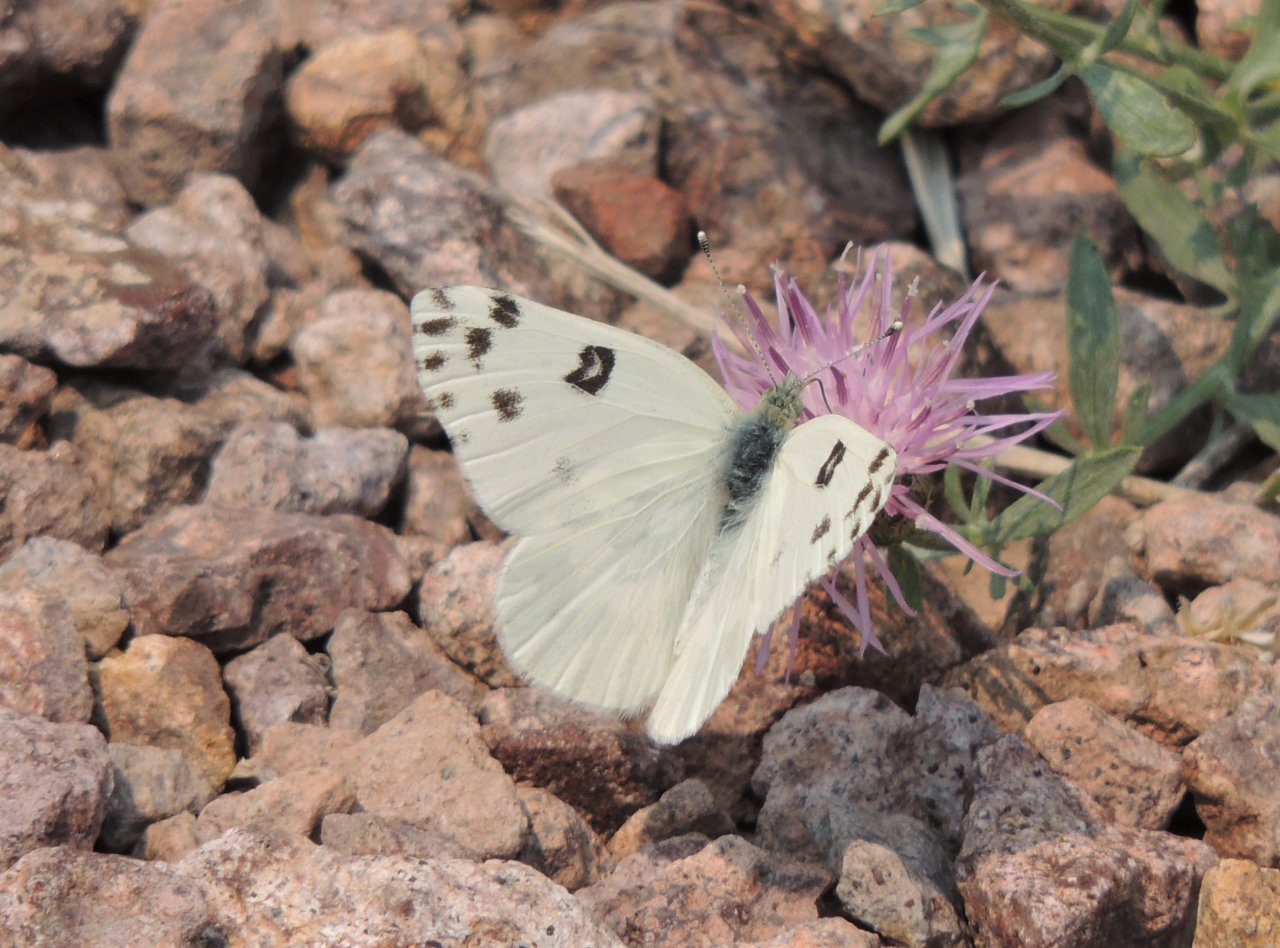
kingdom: Animalia
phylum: Arthropoda
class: Insecta
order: Lepidoptera
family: Pieridae
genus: Pontia
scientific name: Pontia beckerii
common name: Becker's White
